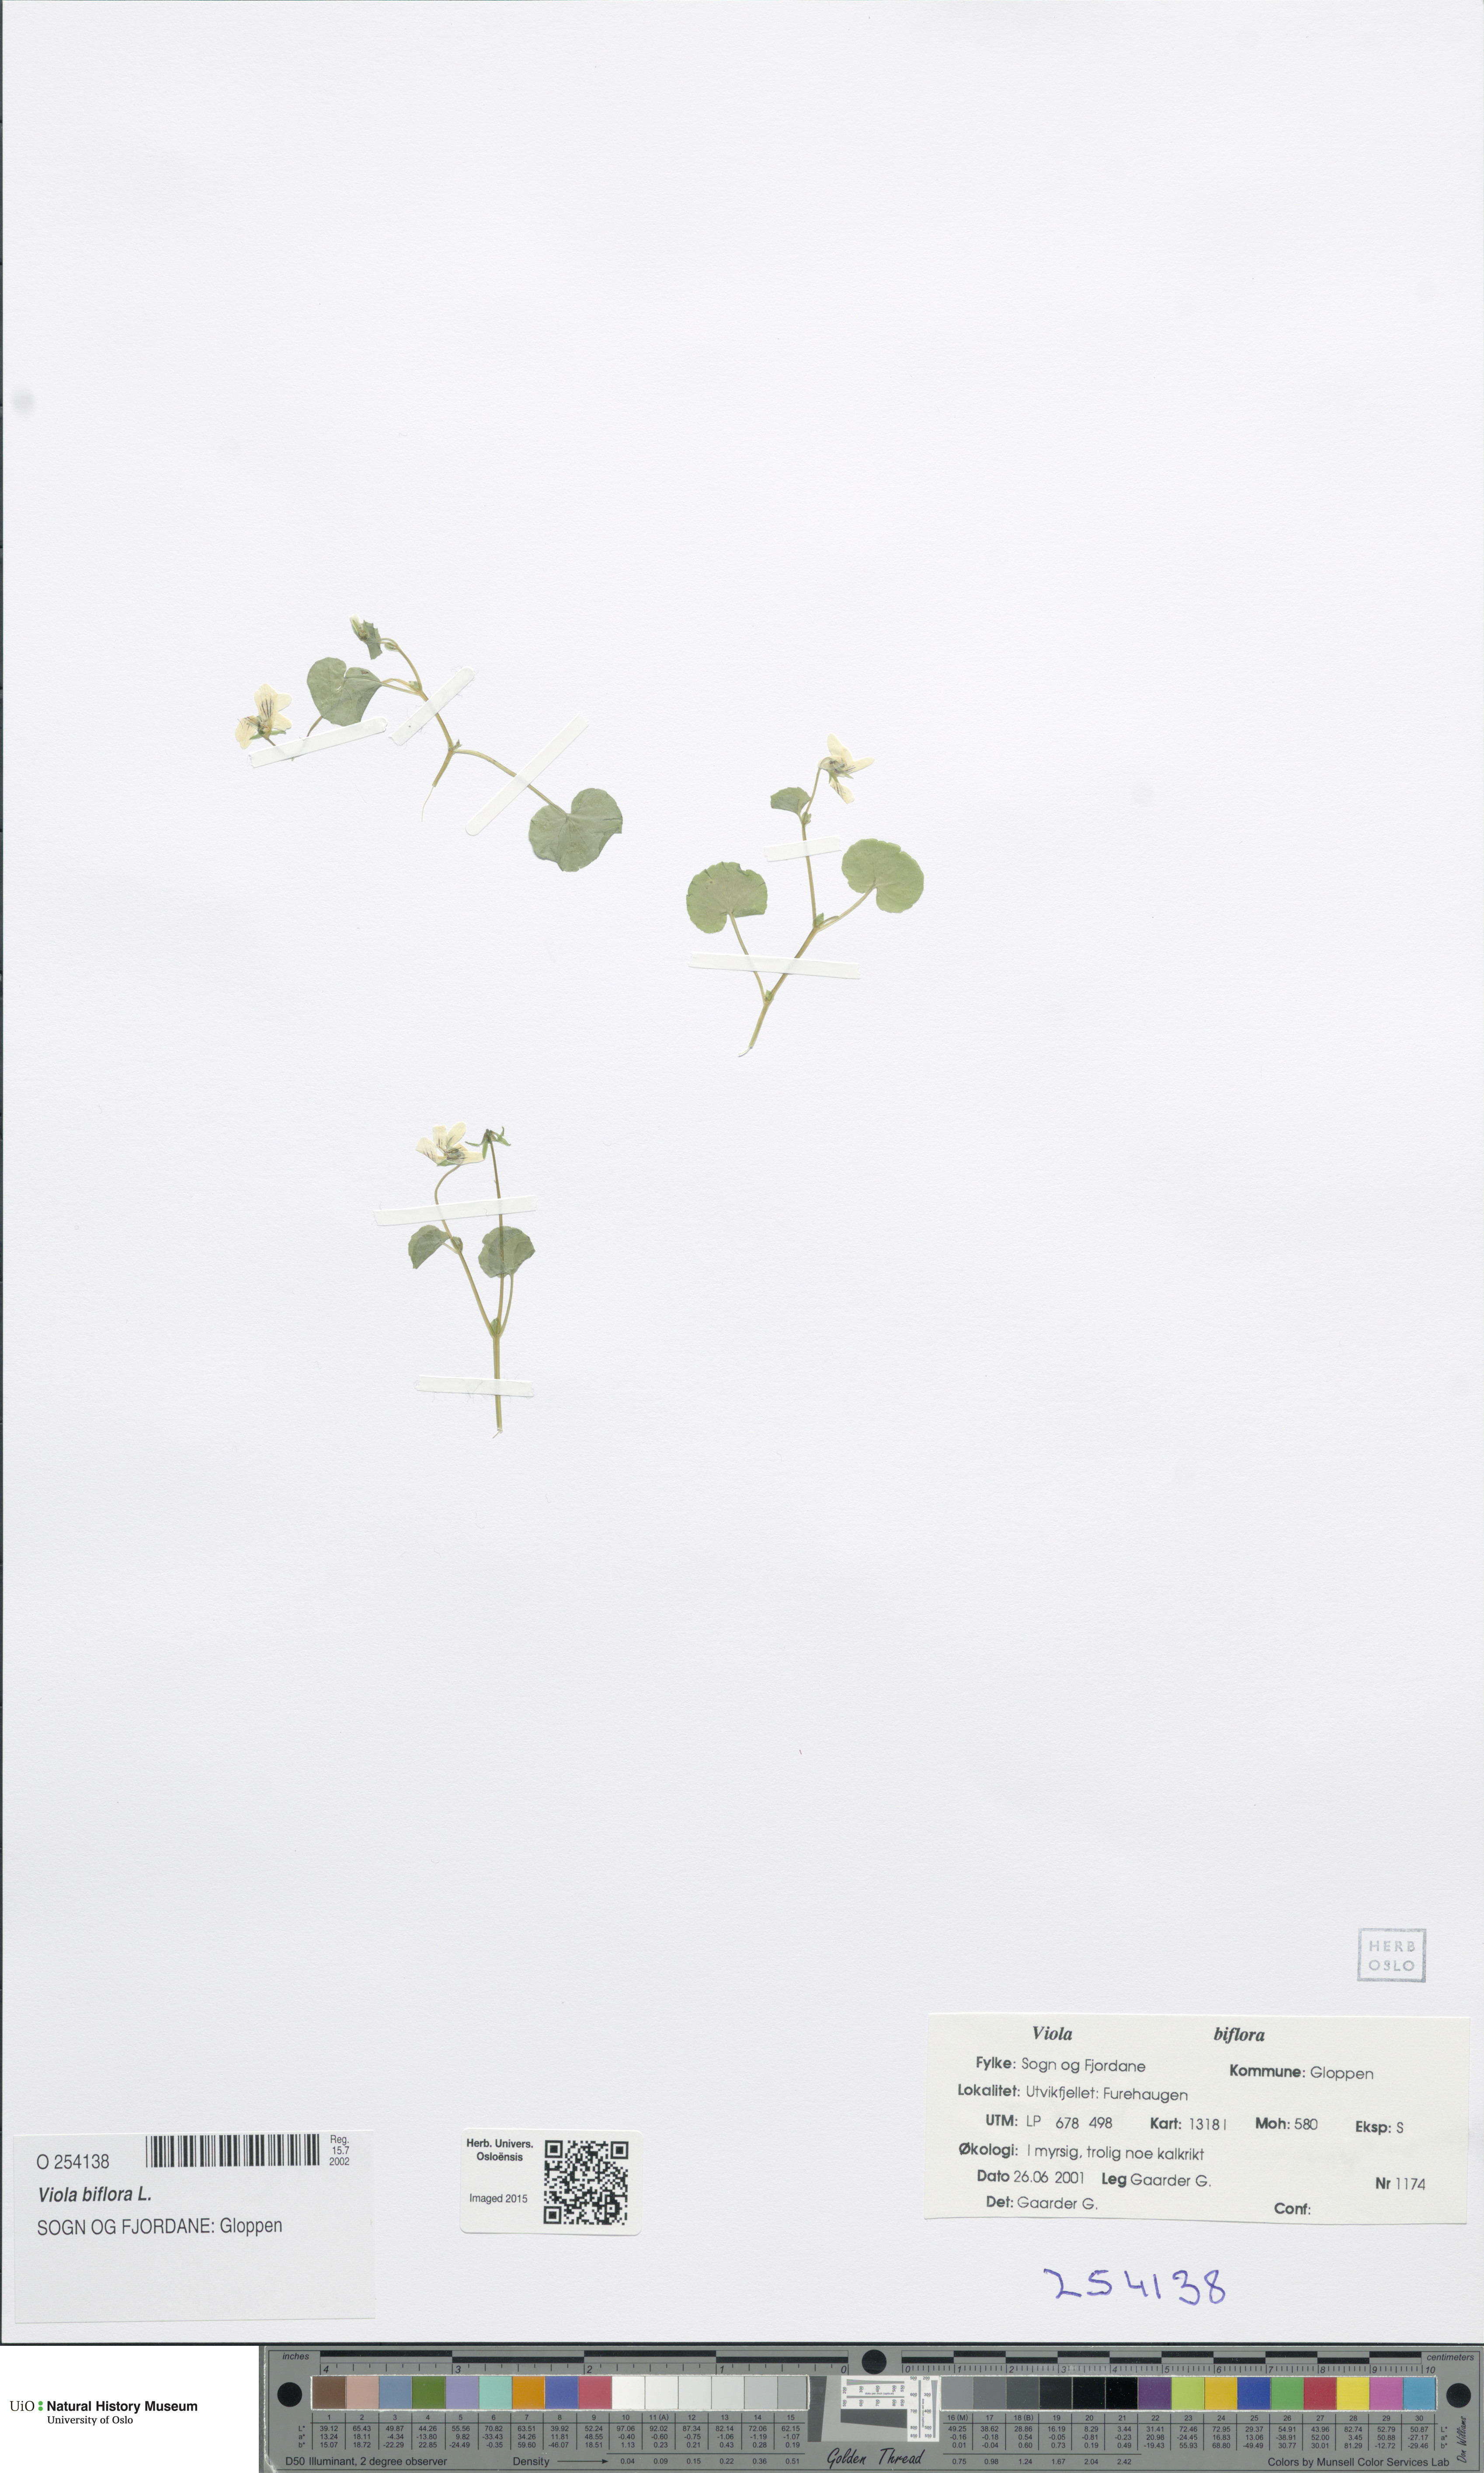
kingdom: Plantae
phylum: Tracheophyta
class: Magnoliopsida
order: Malpighiales
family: Violaceae
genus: Viola
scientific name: Viola biflora
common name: Alpine yellow violet
